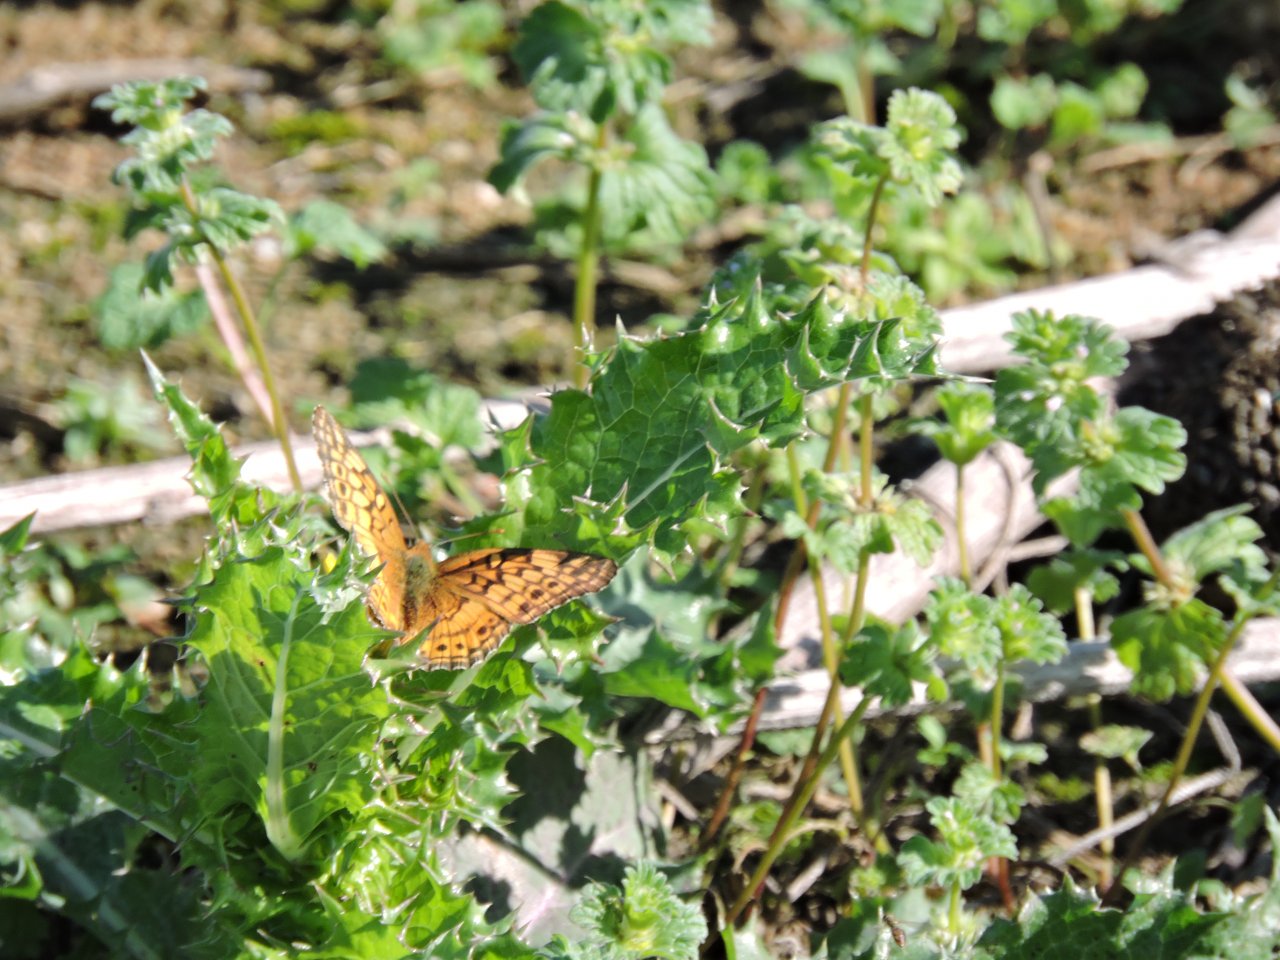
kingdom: Animalia
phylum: Arthropoda
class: Insecta
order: Lepidoptera
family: Nymphalidae
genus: Euptoieta
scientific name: Euptoieta claudia
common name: Variegated Fritillary
